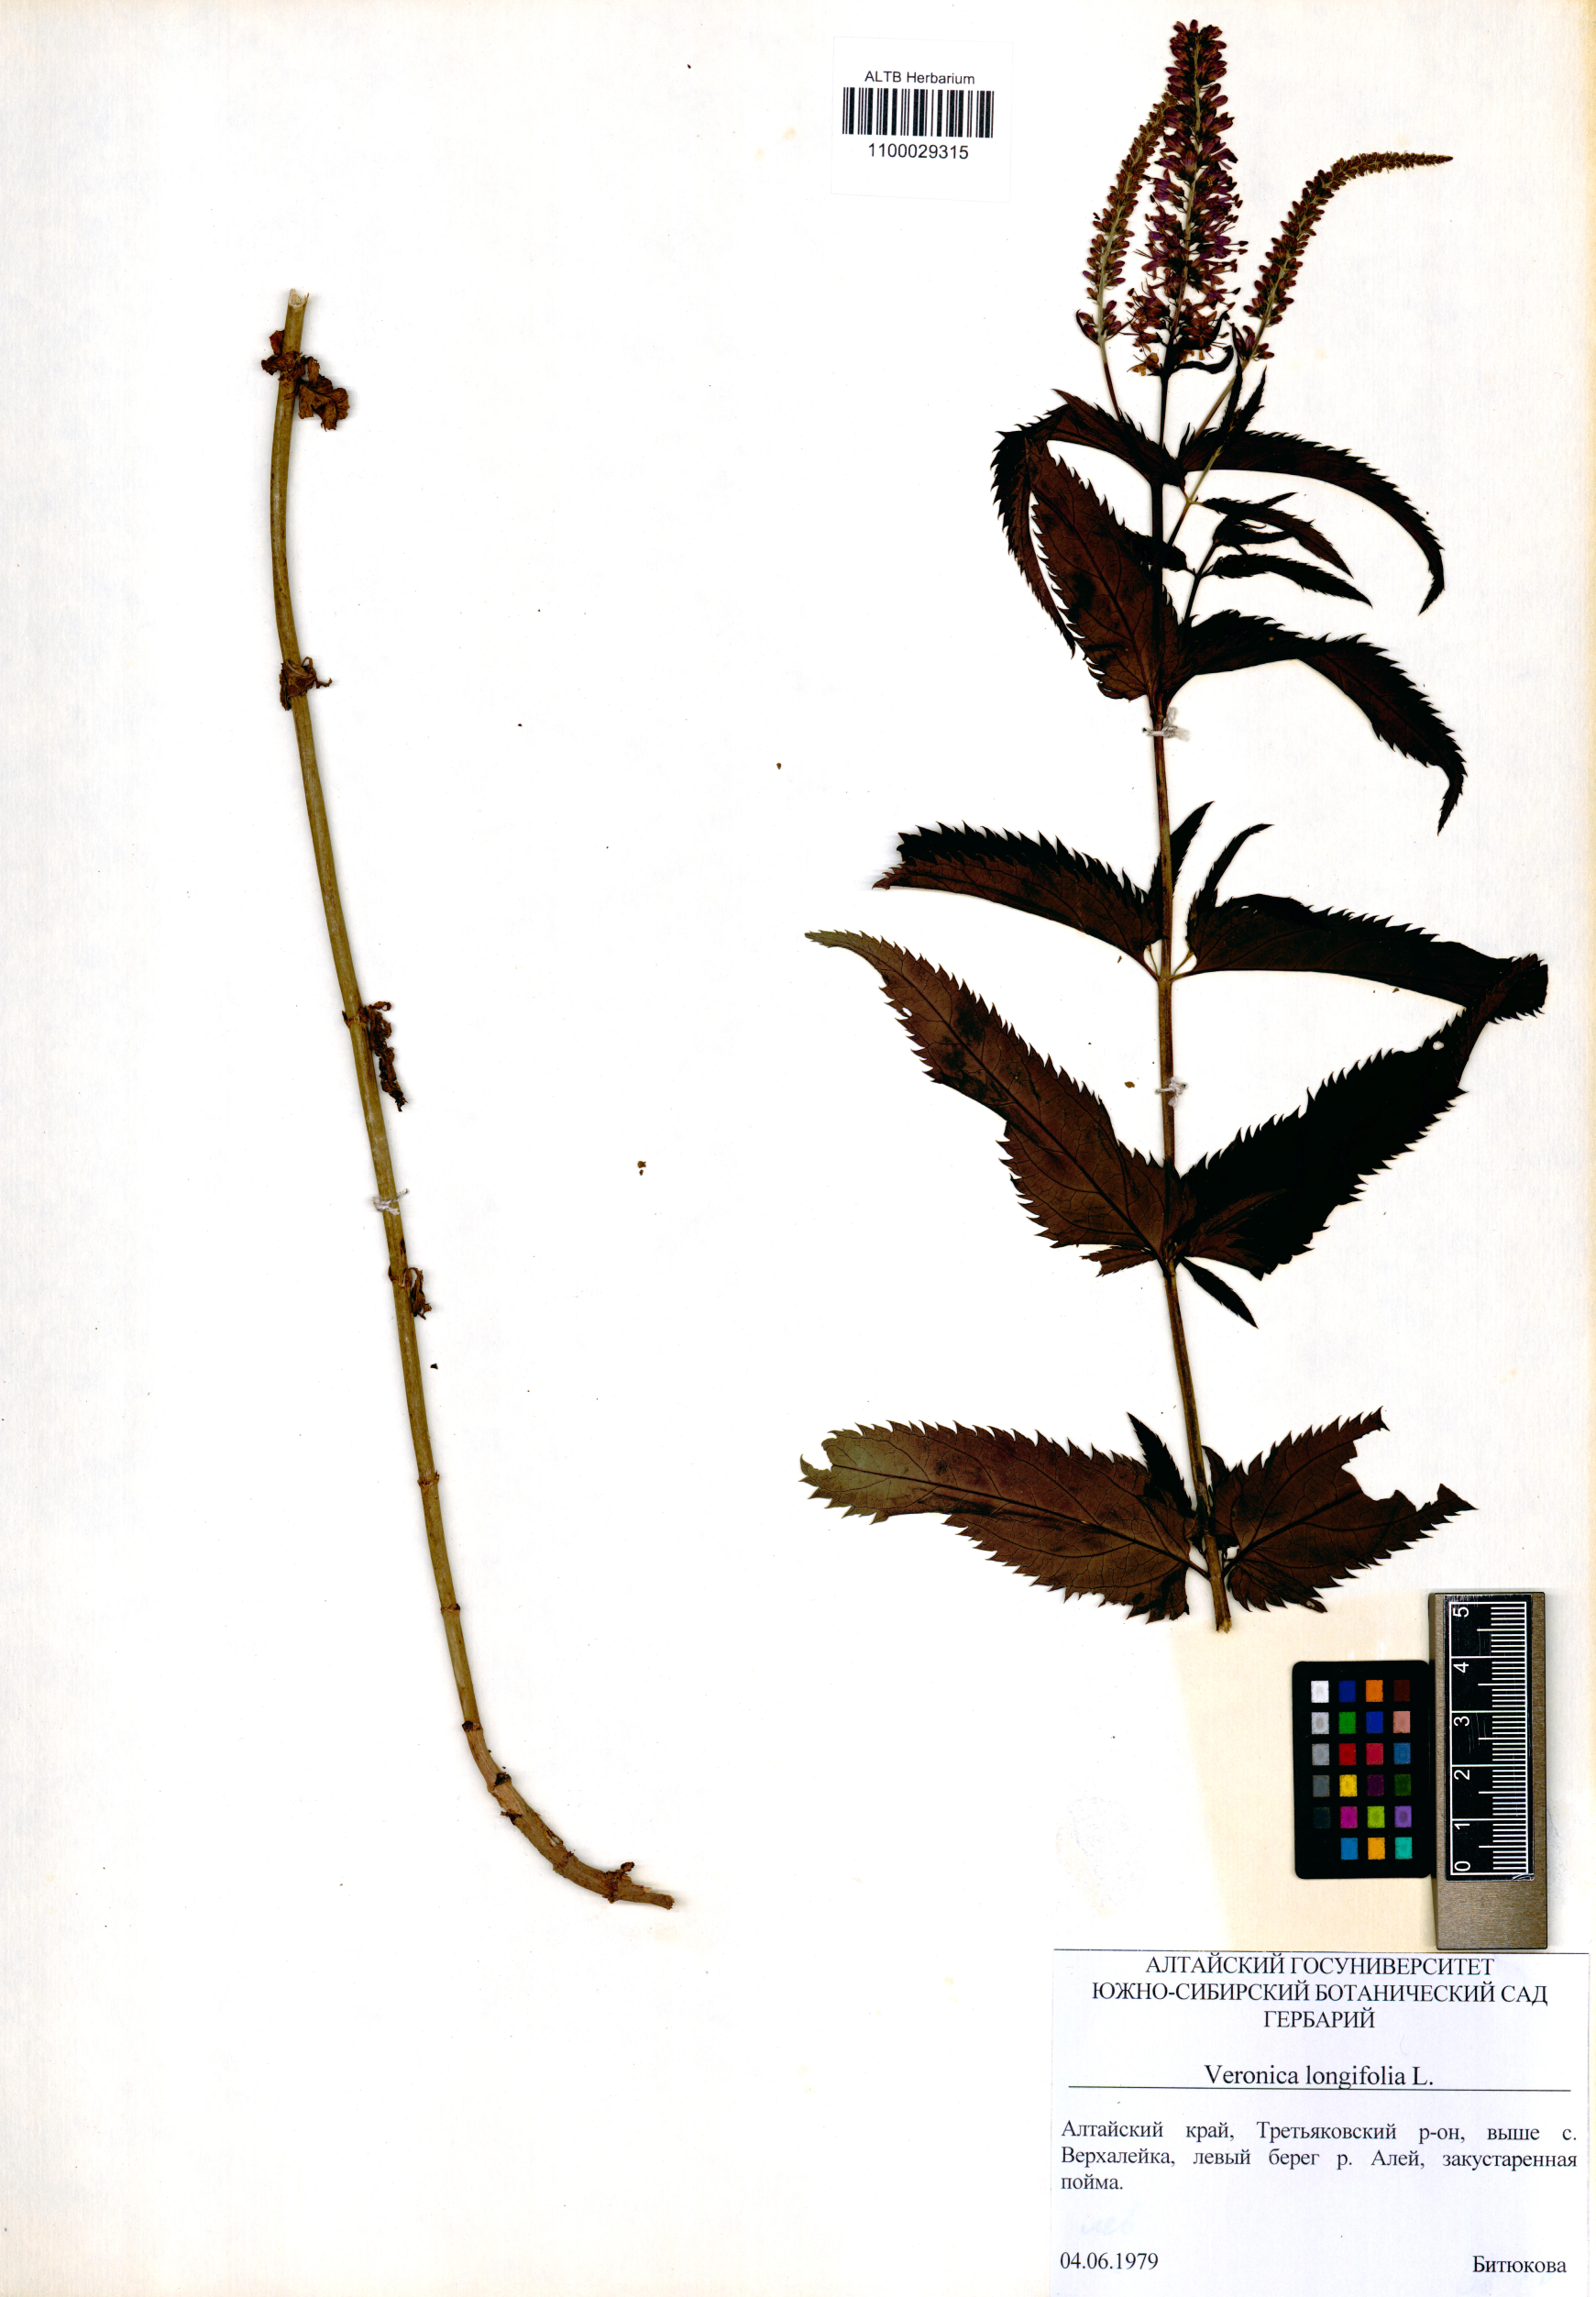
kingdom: Plantae
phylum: Tracheophyta
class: Magnoliopsida
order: Lamiales
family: Plantaginaceae
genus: Veronica
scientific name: Veronica longifolia
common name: Garden speedwell
